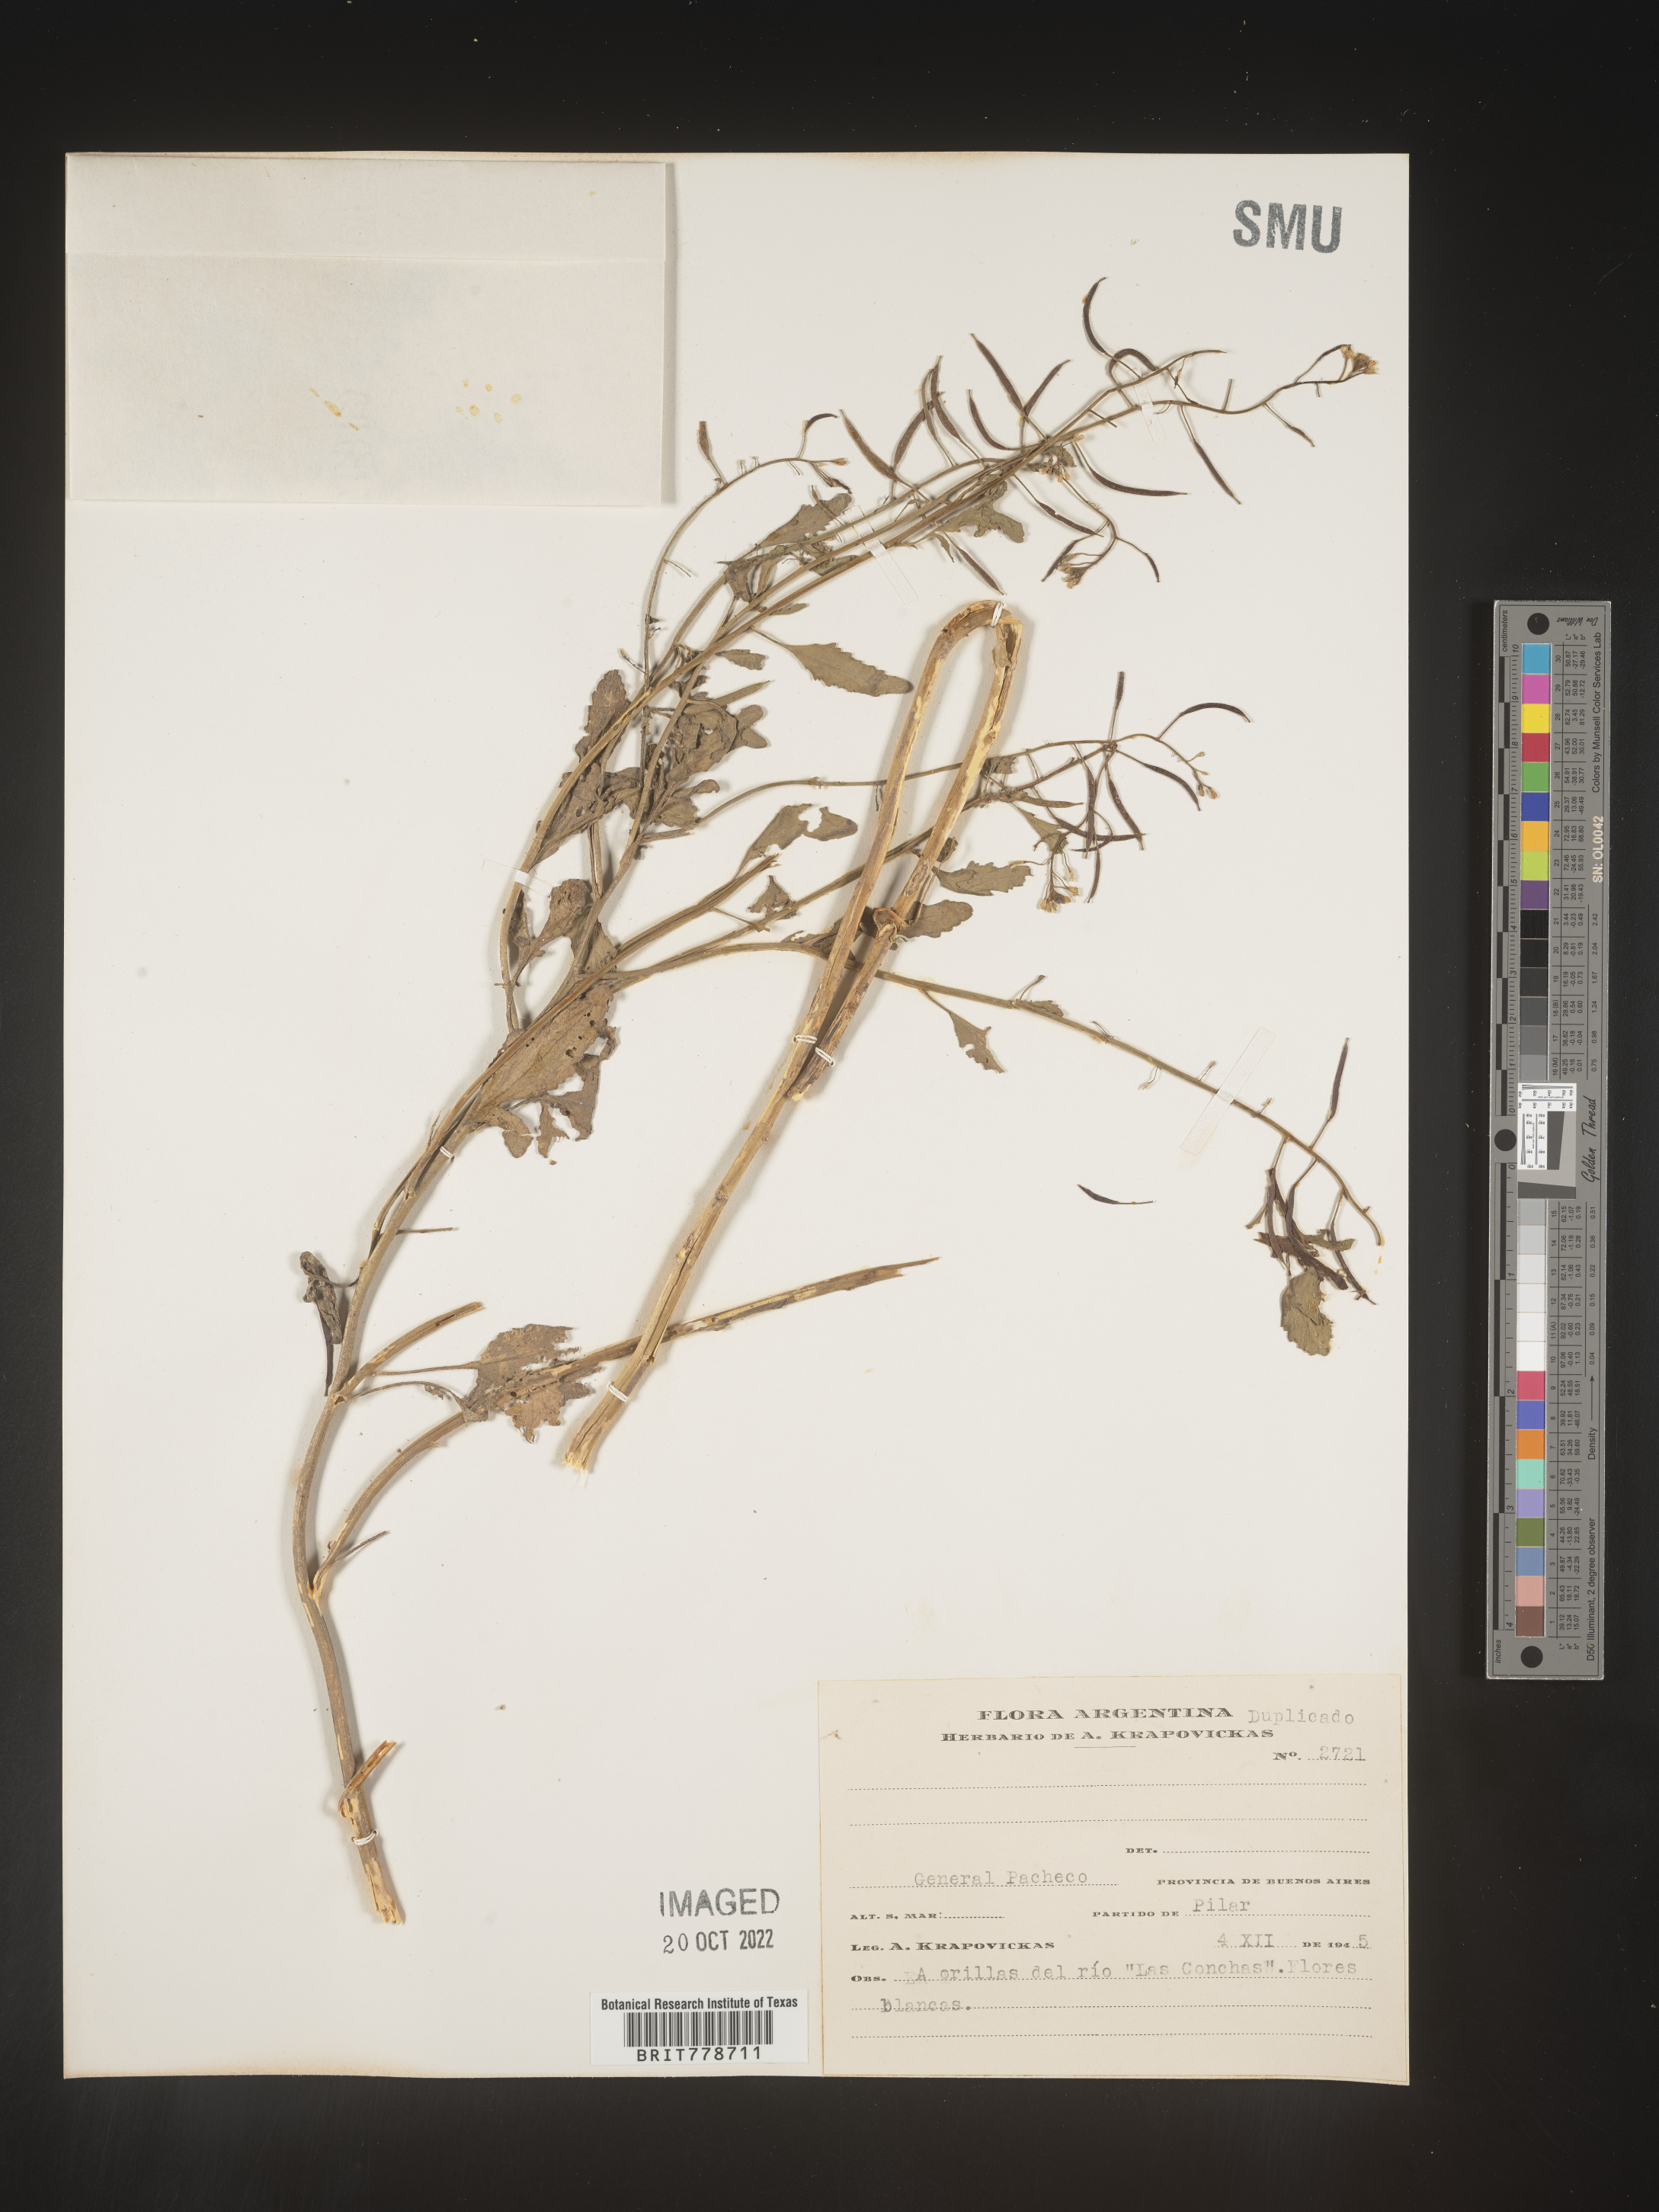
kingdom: Plantae
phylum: Tracheophyta
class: Magnoliopsida
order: Brassicales
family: Brassicaceae
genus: Rorippa
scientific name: Rorippa
